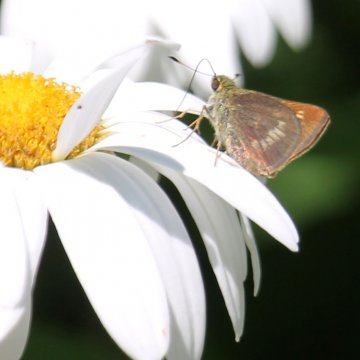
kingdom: Animalia
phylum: Arthropoda
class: Insecta
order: Lepidoptera
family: Hesperiidae
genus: Polites
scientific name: Polites egeremet
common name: Northern Broken-Dash
